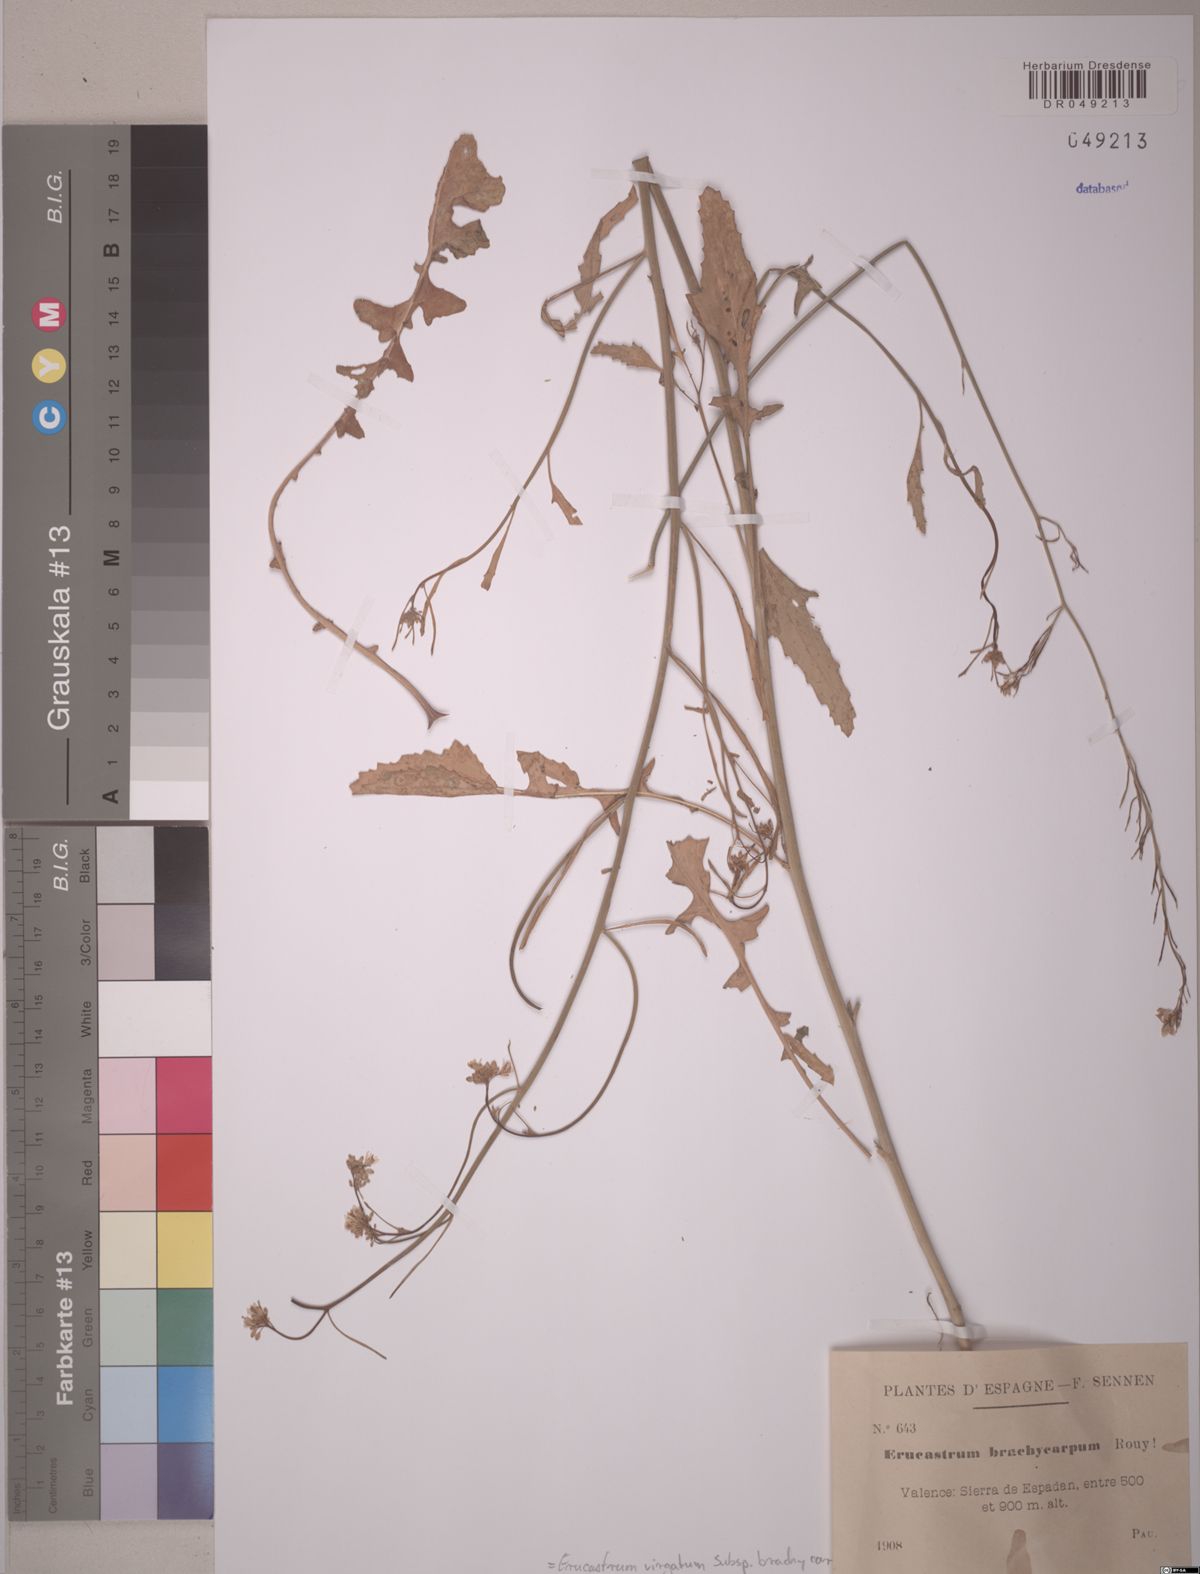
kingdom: Plantae
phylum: Tracheophyta
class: Magnoliopsida
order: Brassicales
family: Brassicaceae
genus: Erucastrum
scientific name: Erucastrum virgatum
